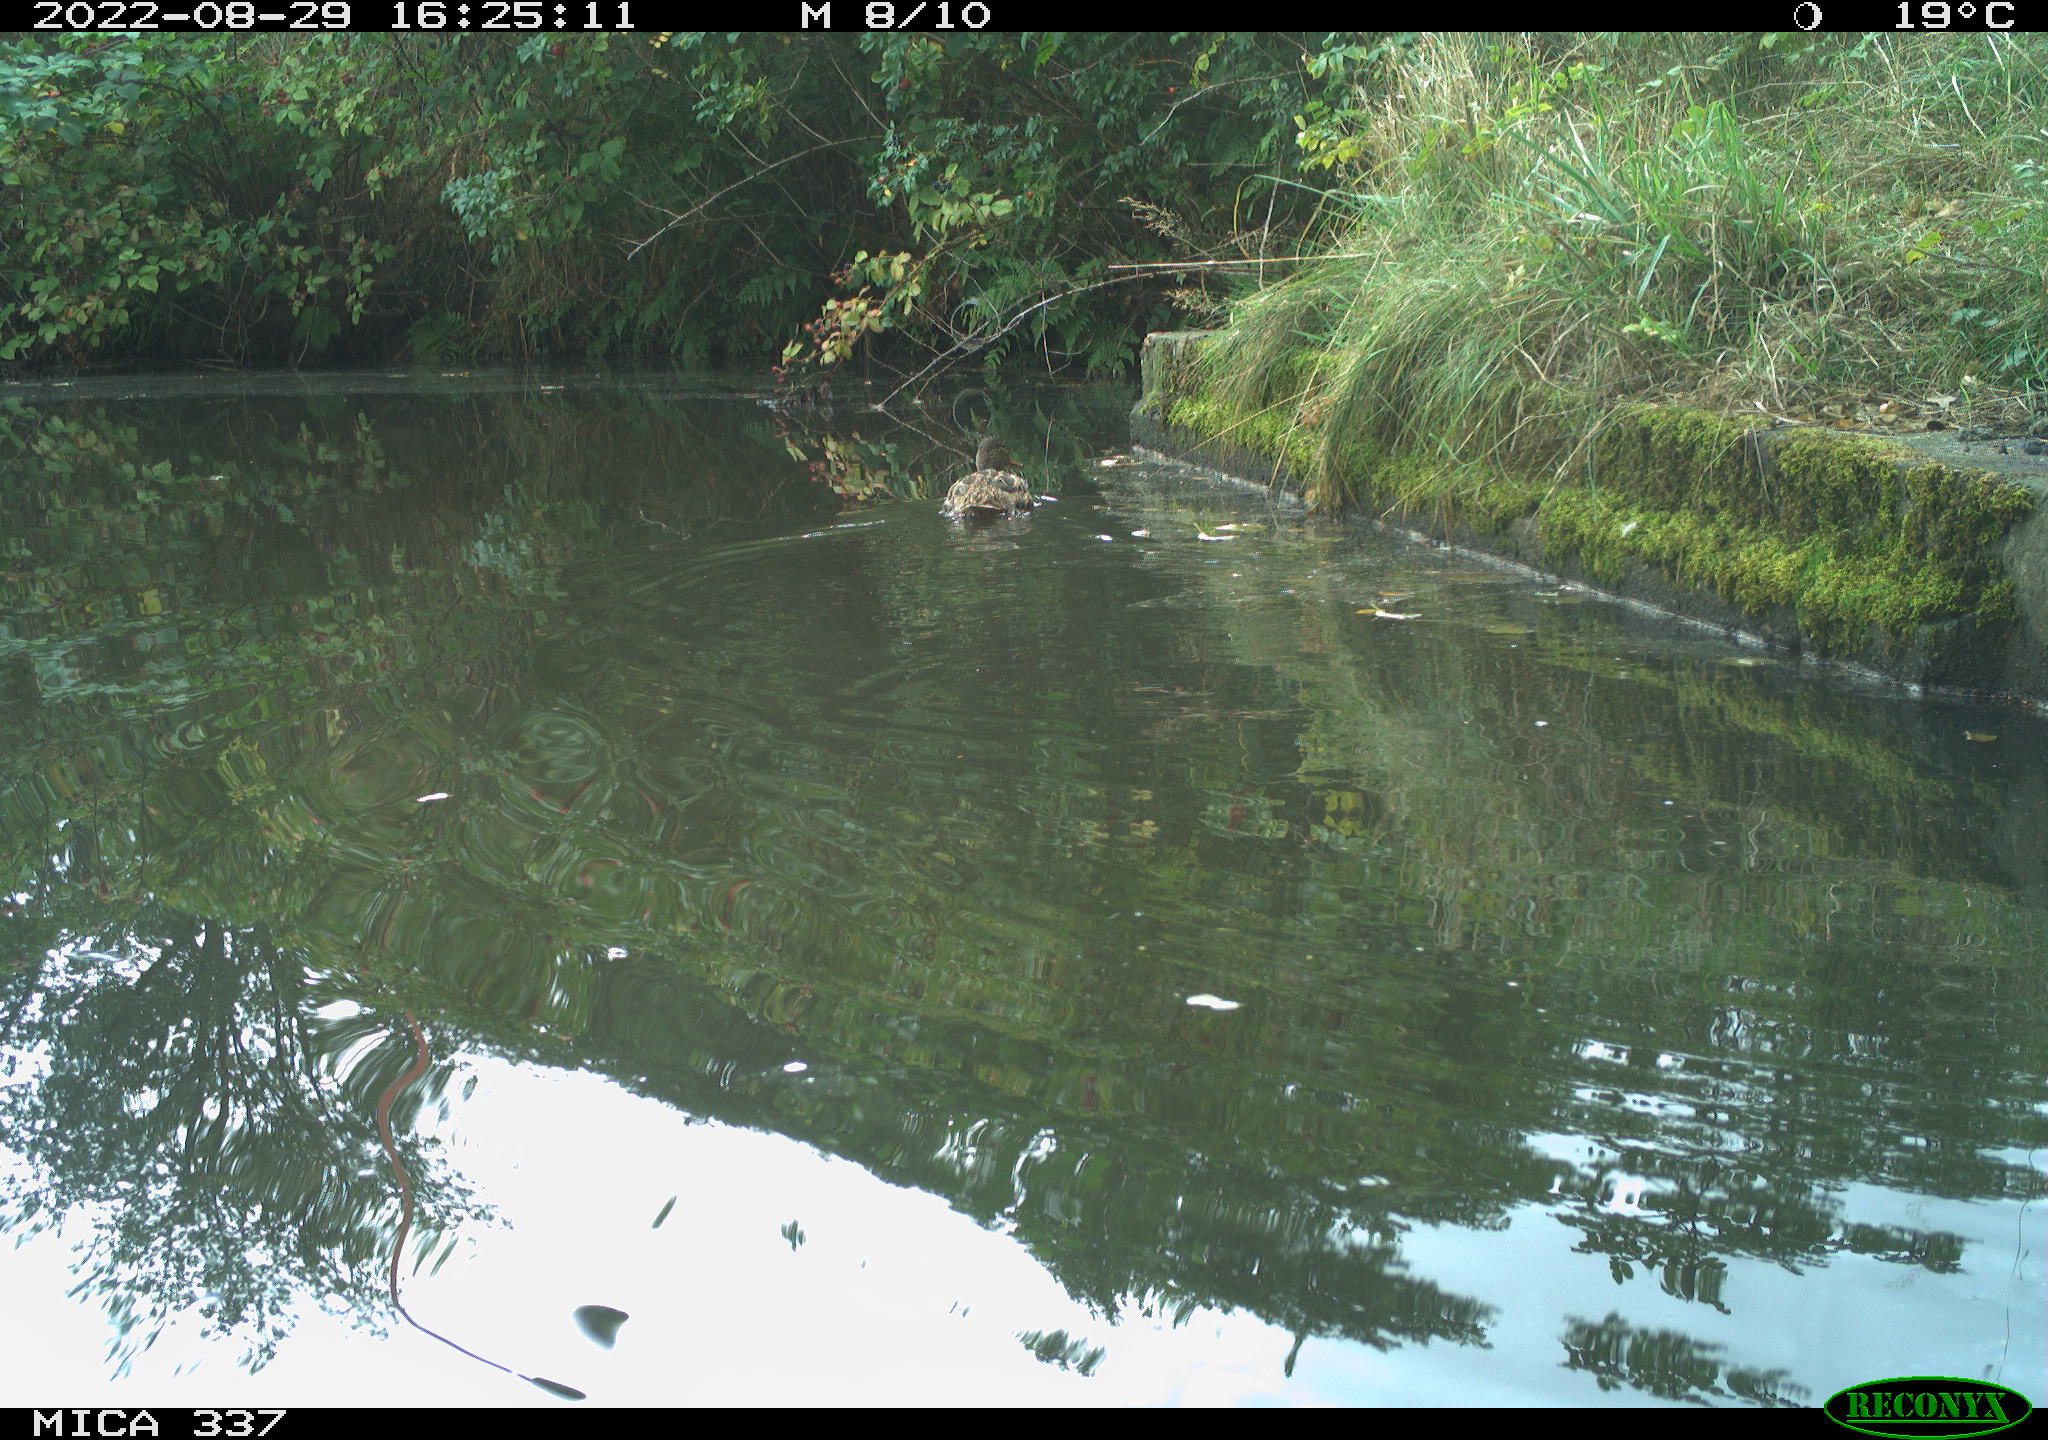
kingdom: Animalia
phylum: Chordata
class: Aves
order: Anseriformes
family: Anatidae
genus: Anas
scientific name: Anas platyrhynchos
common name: Mallard
